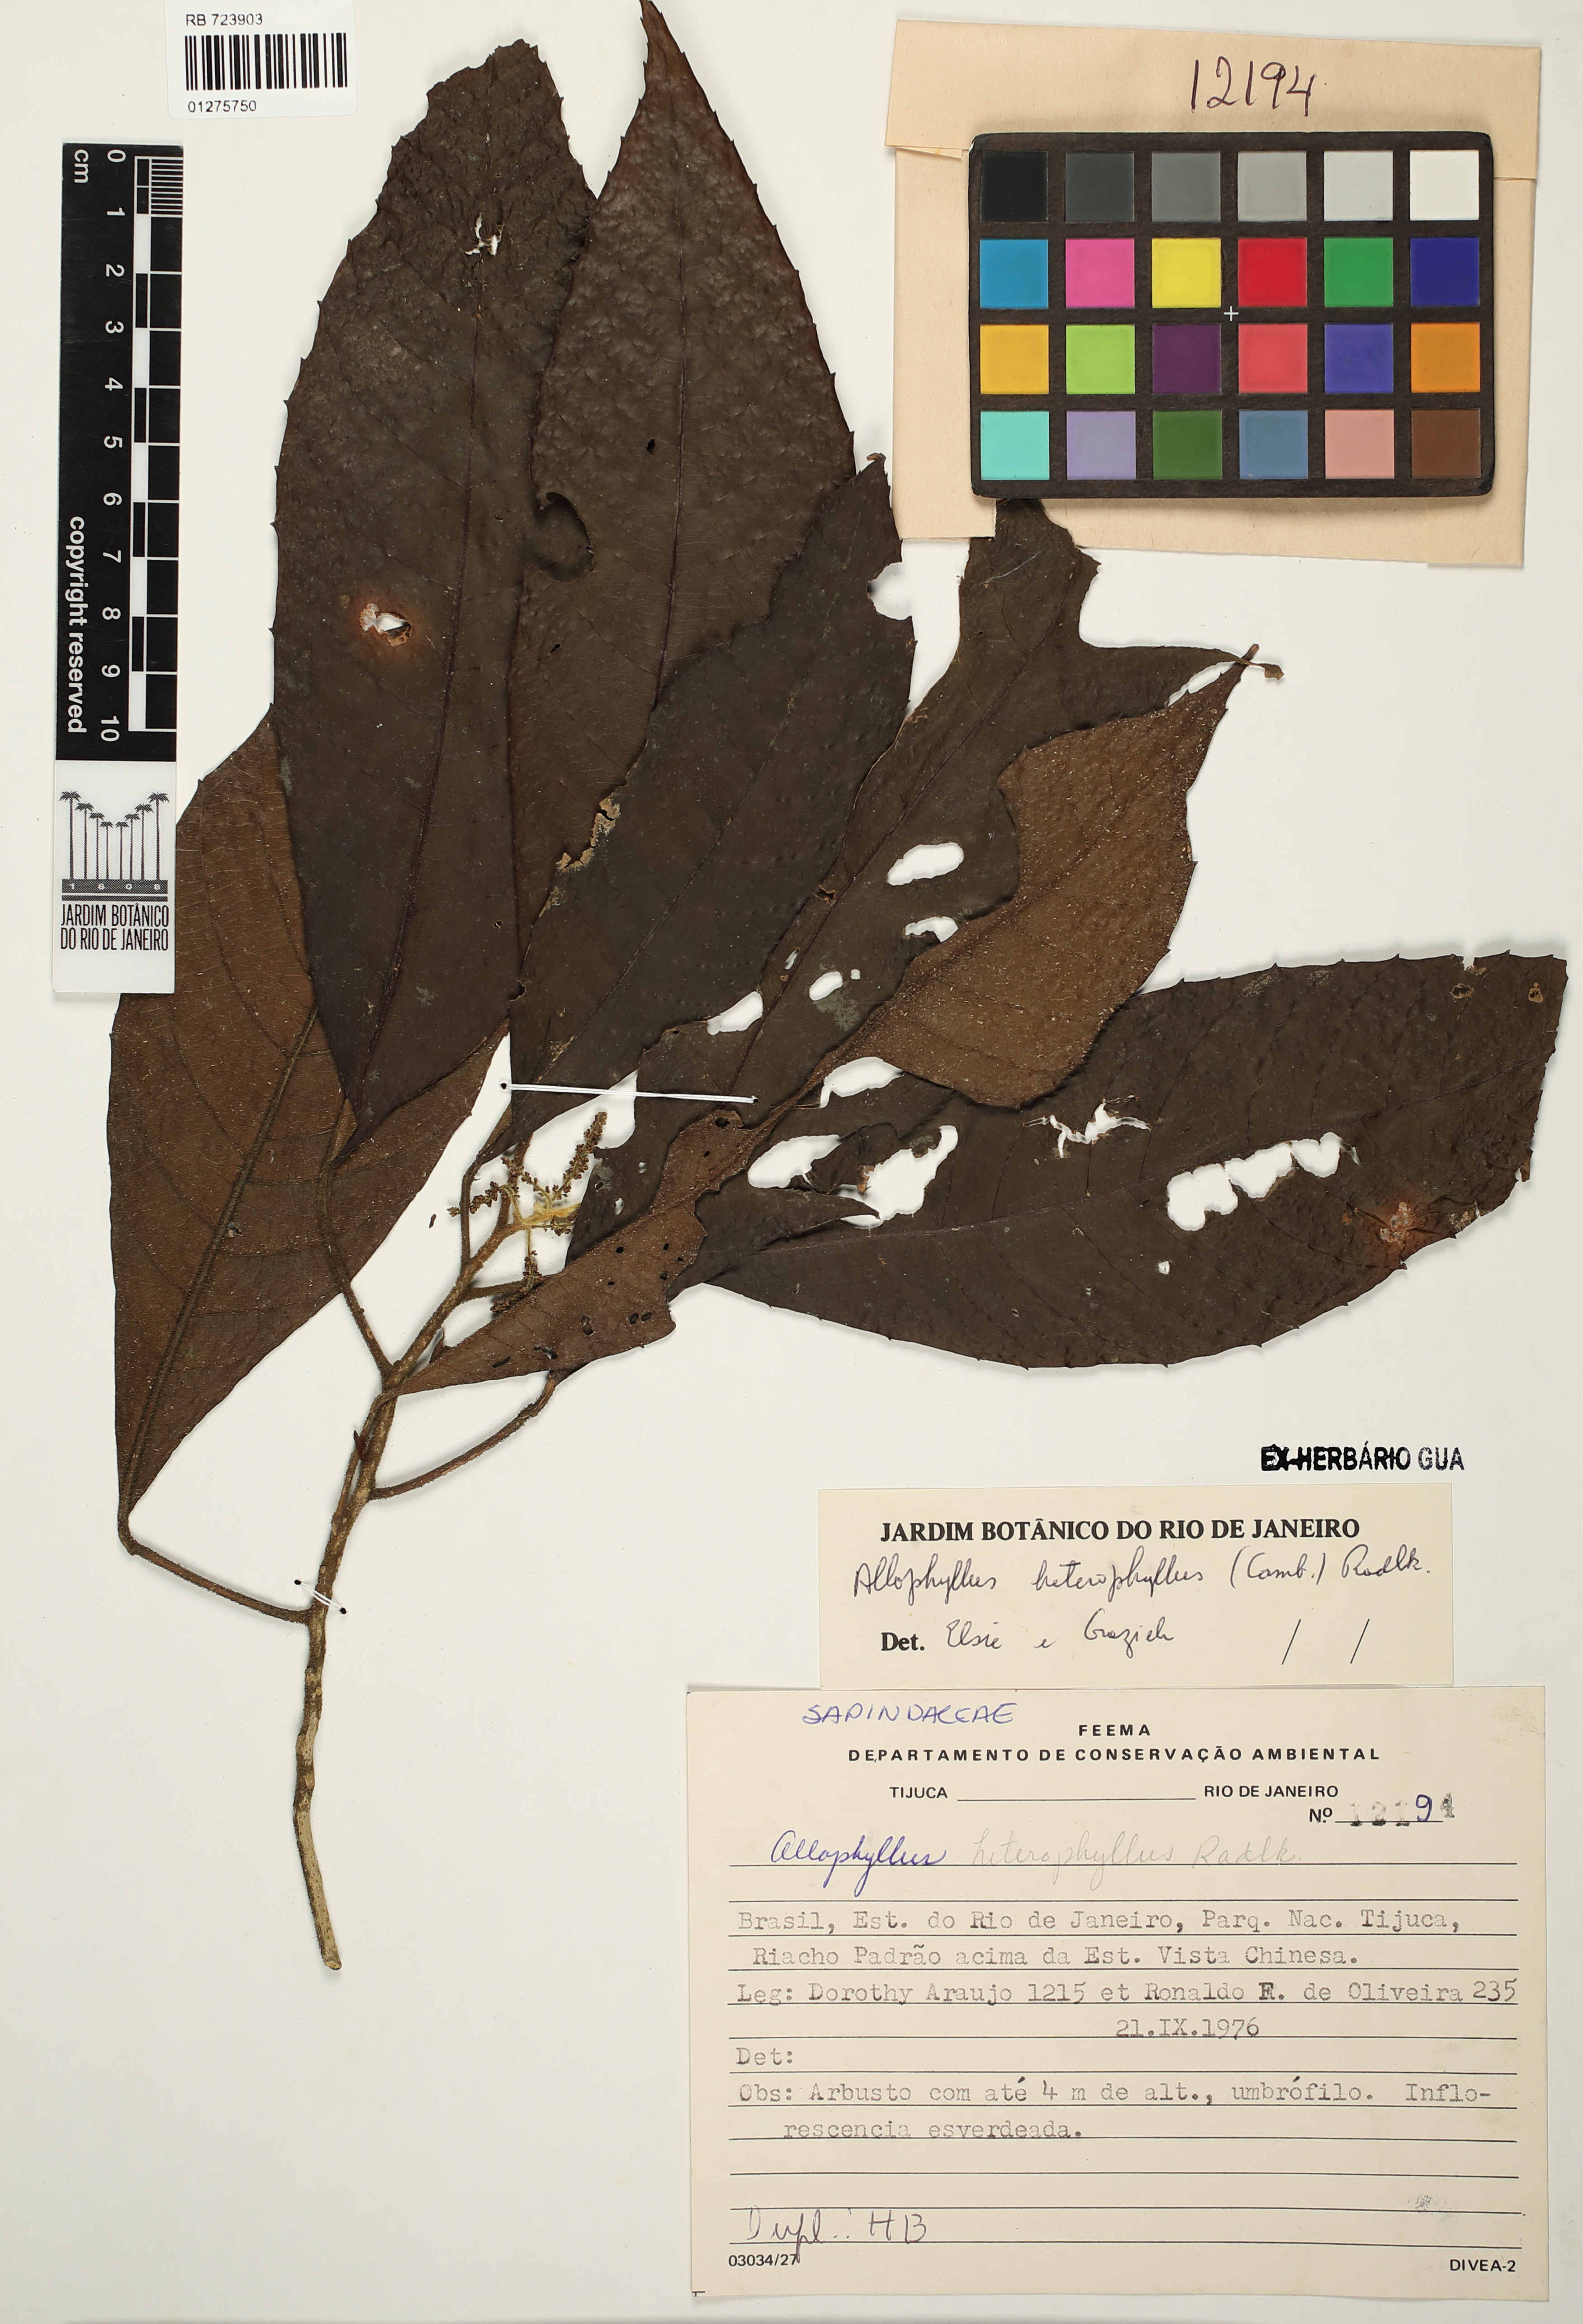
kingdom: Plantae
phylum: Tracheophyta
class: Magnoliopsida
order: Sapindales
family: Sapindaceae
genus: Allophylus
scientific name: Allophylus heterophyllus
